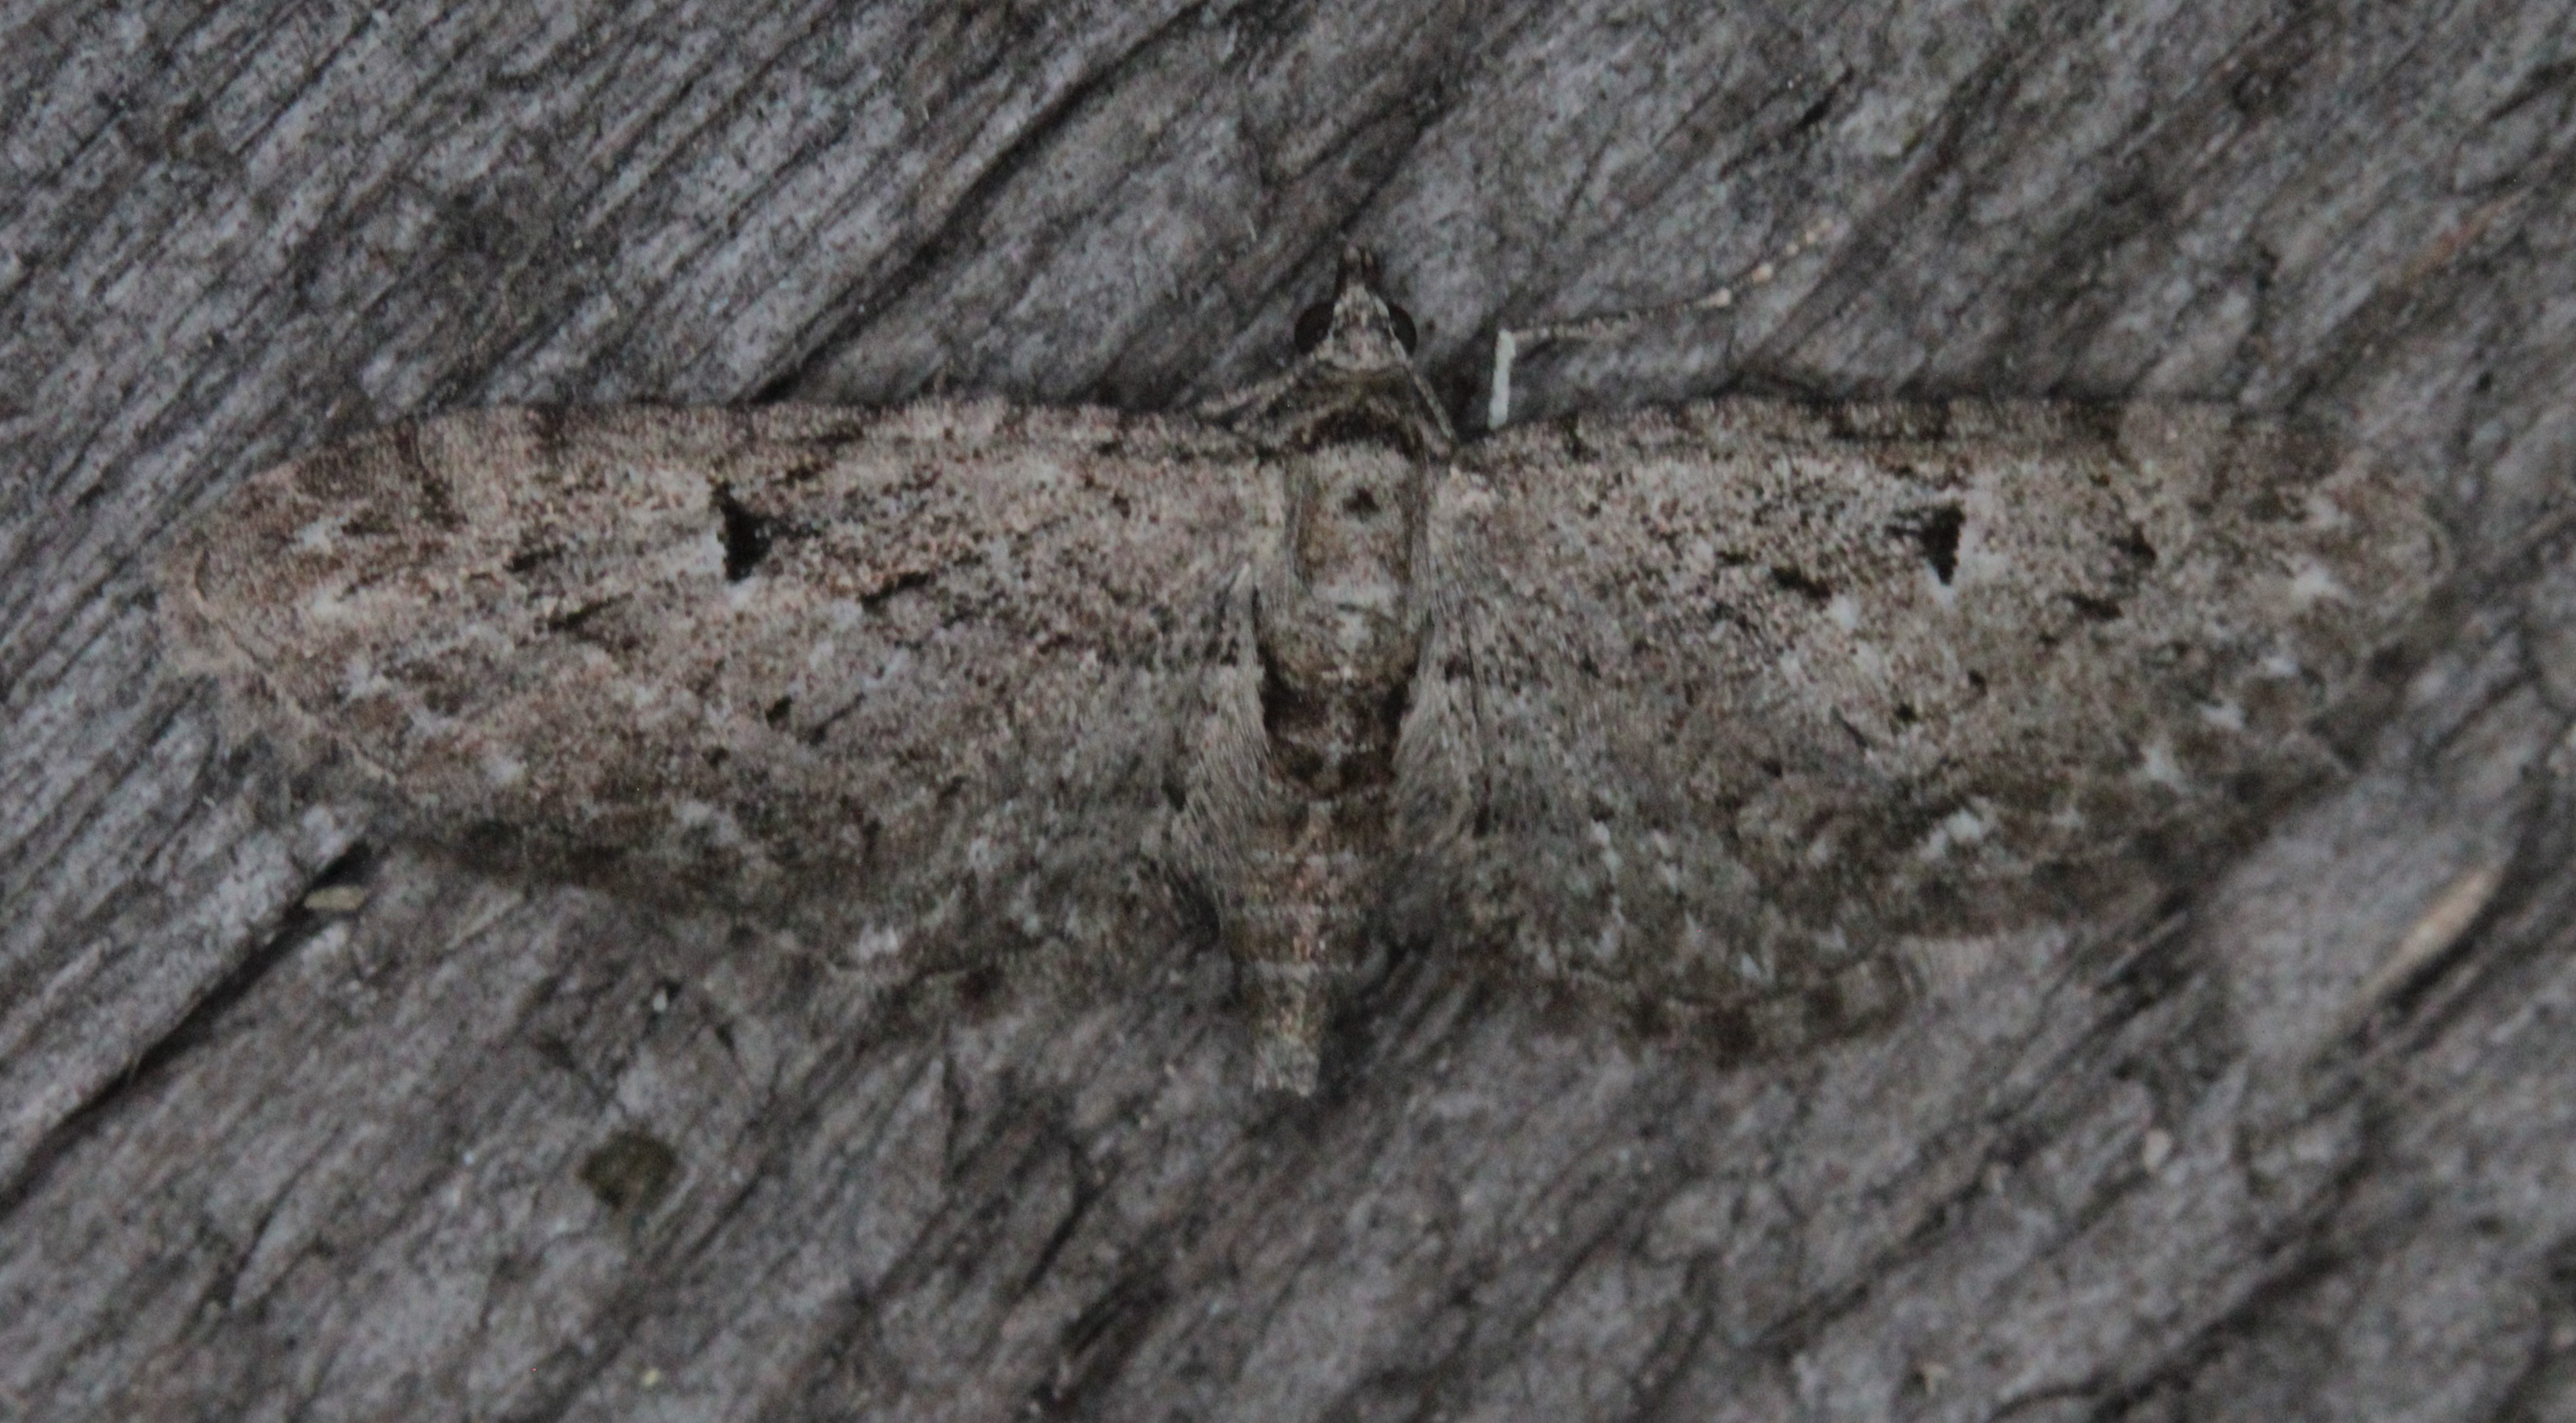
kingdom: Animalia
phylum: Arthropoda
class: Insecta
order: Lepidoptera
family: Geometridae
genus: Eupithecia
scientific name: Eupithecia pusillata
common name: Juniper pug
